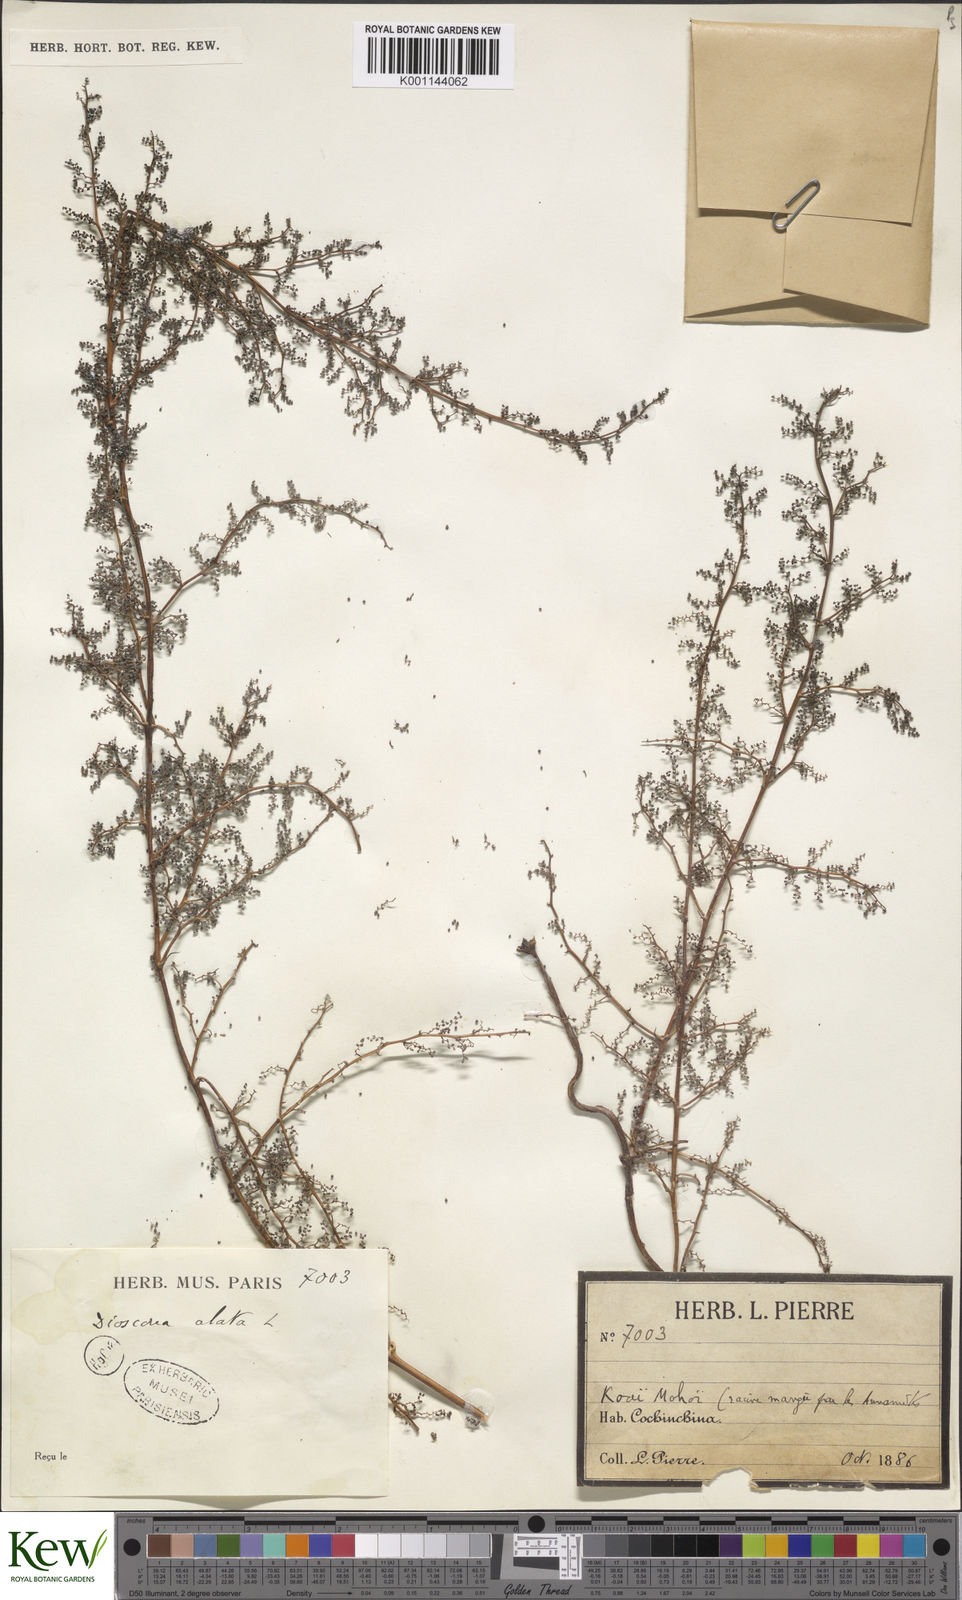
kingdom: Plantae
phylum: Tracheophyta
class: Liliopsida
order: Dioscoreales
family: Dioscoreaceae
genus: Dioscorea
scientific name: Dioscorea
